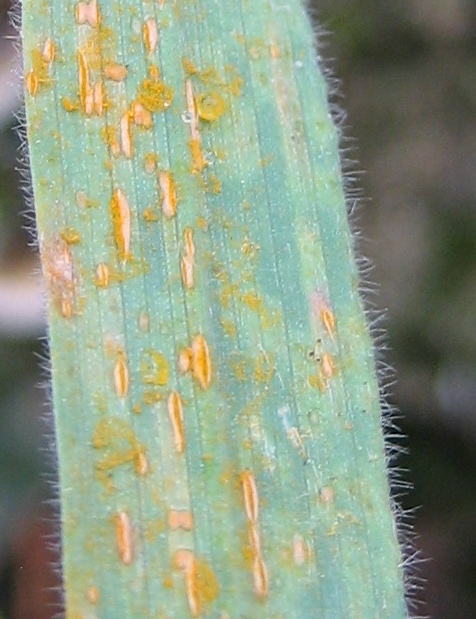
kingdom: Fungi
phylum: Basidiomycota
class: Pucciniomycetes
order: Pucciniales
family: Pucciniaceae
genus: Puccinia
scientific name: Puccinia
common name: tvecellerust
